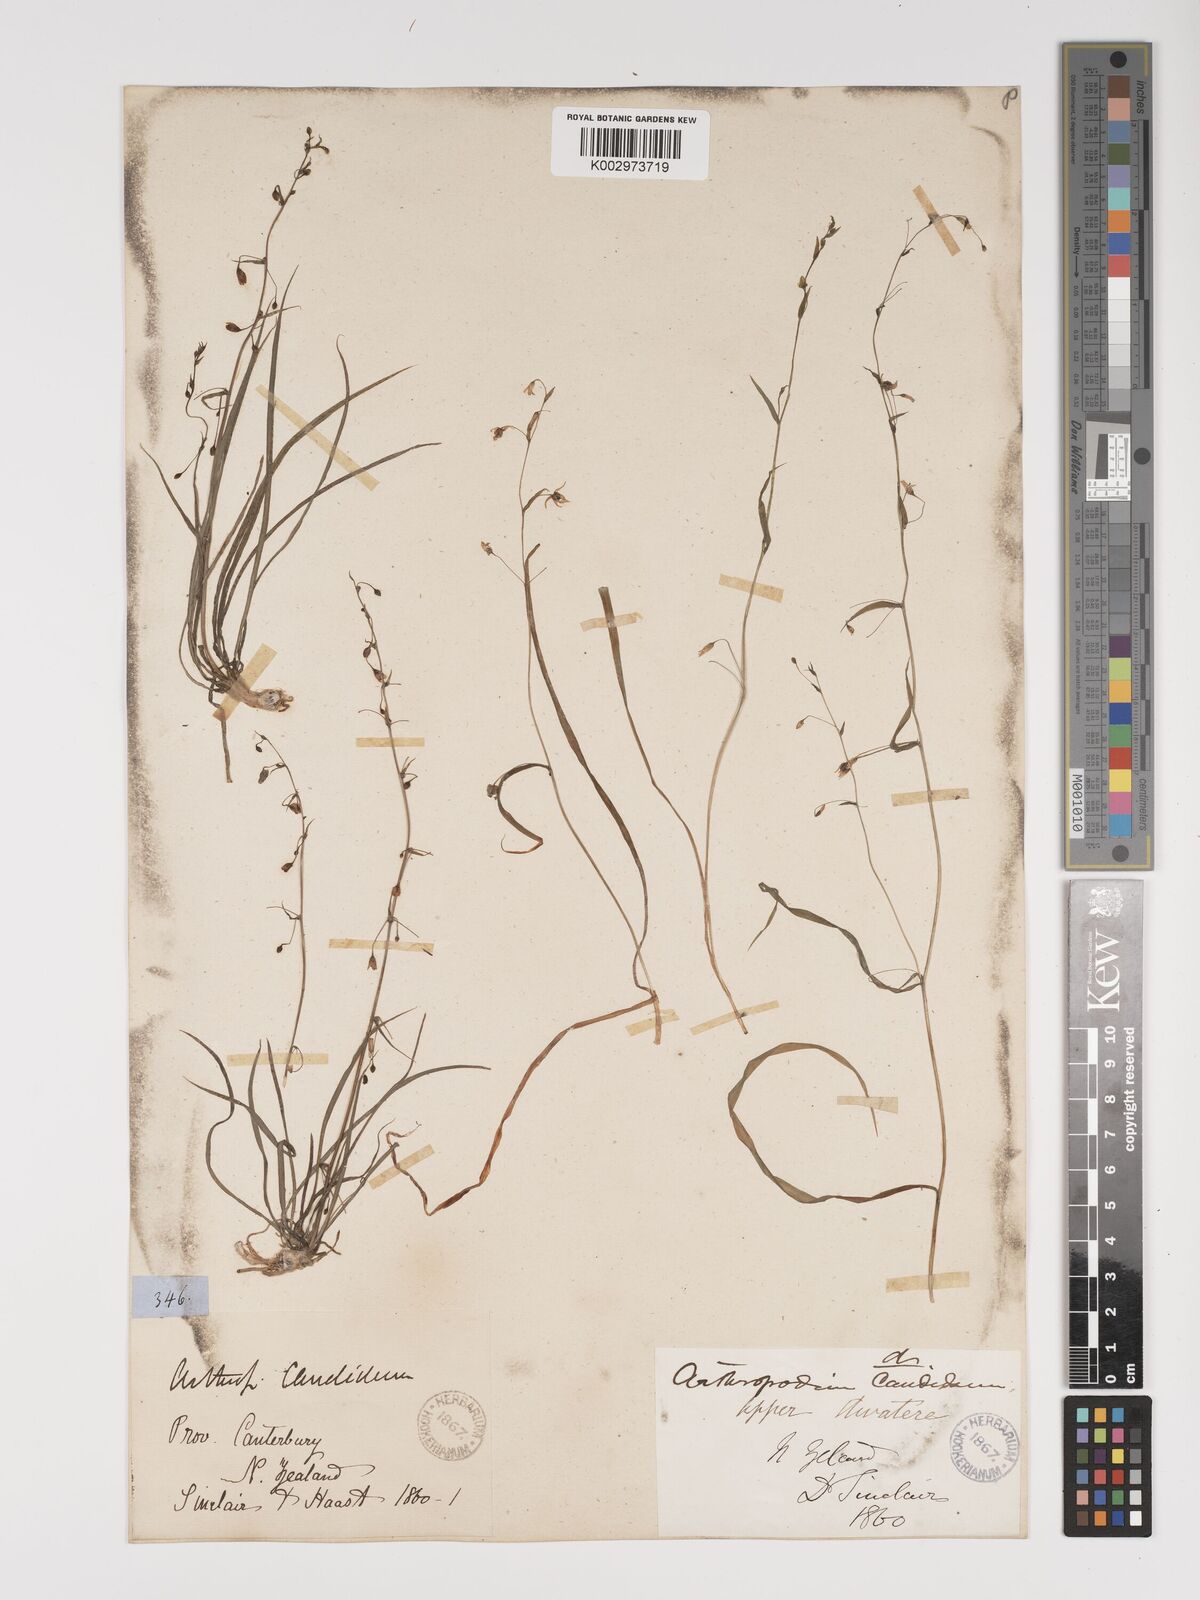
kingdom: Plantae
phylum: Tracheophyta
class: Liliopsida
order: Asparagales
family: Asparagaceae
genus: Arthropodium
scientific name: Arthropodium candidum
